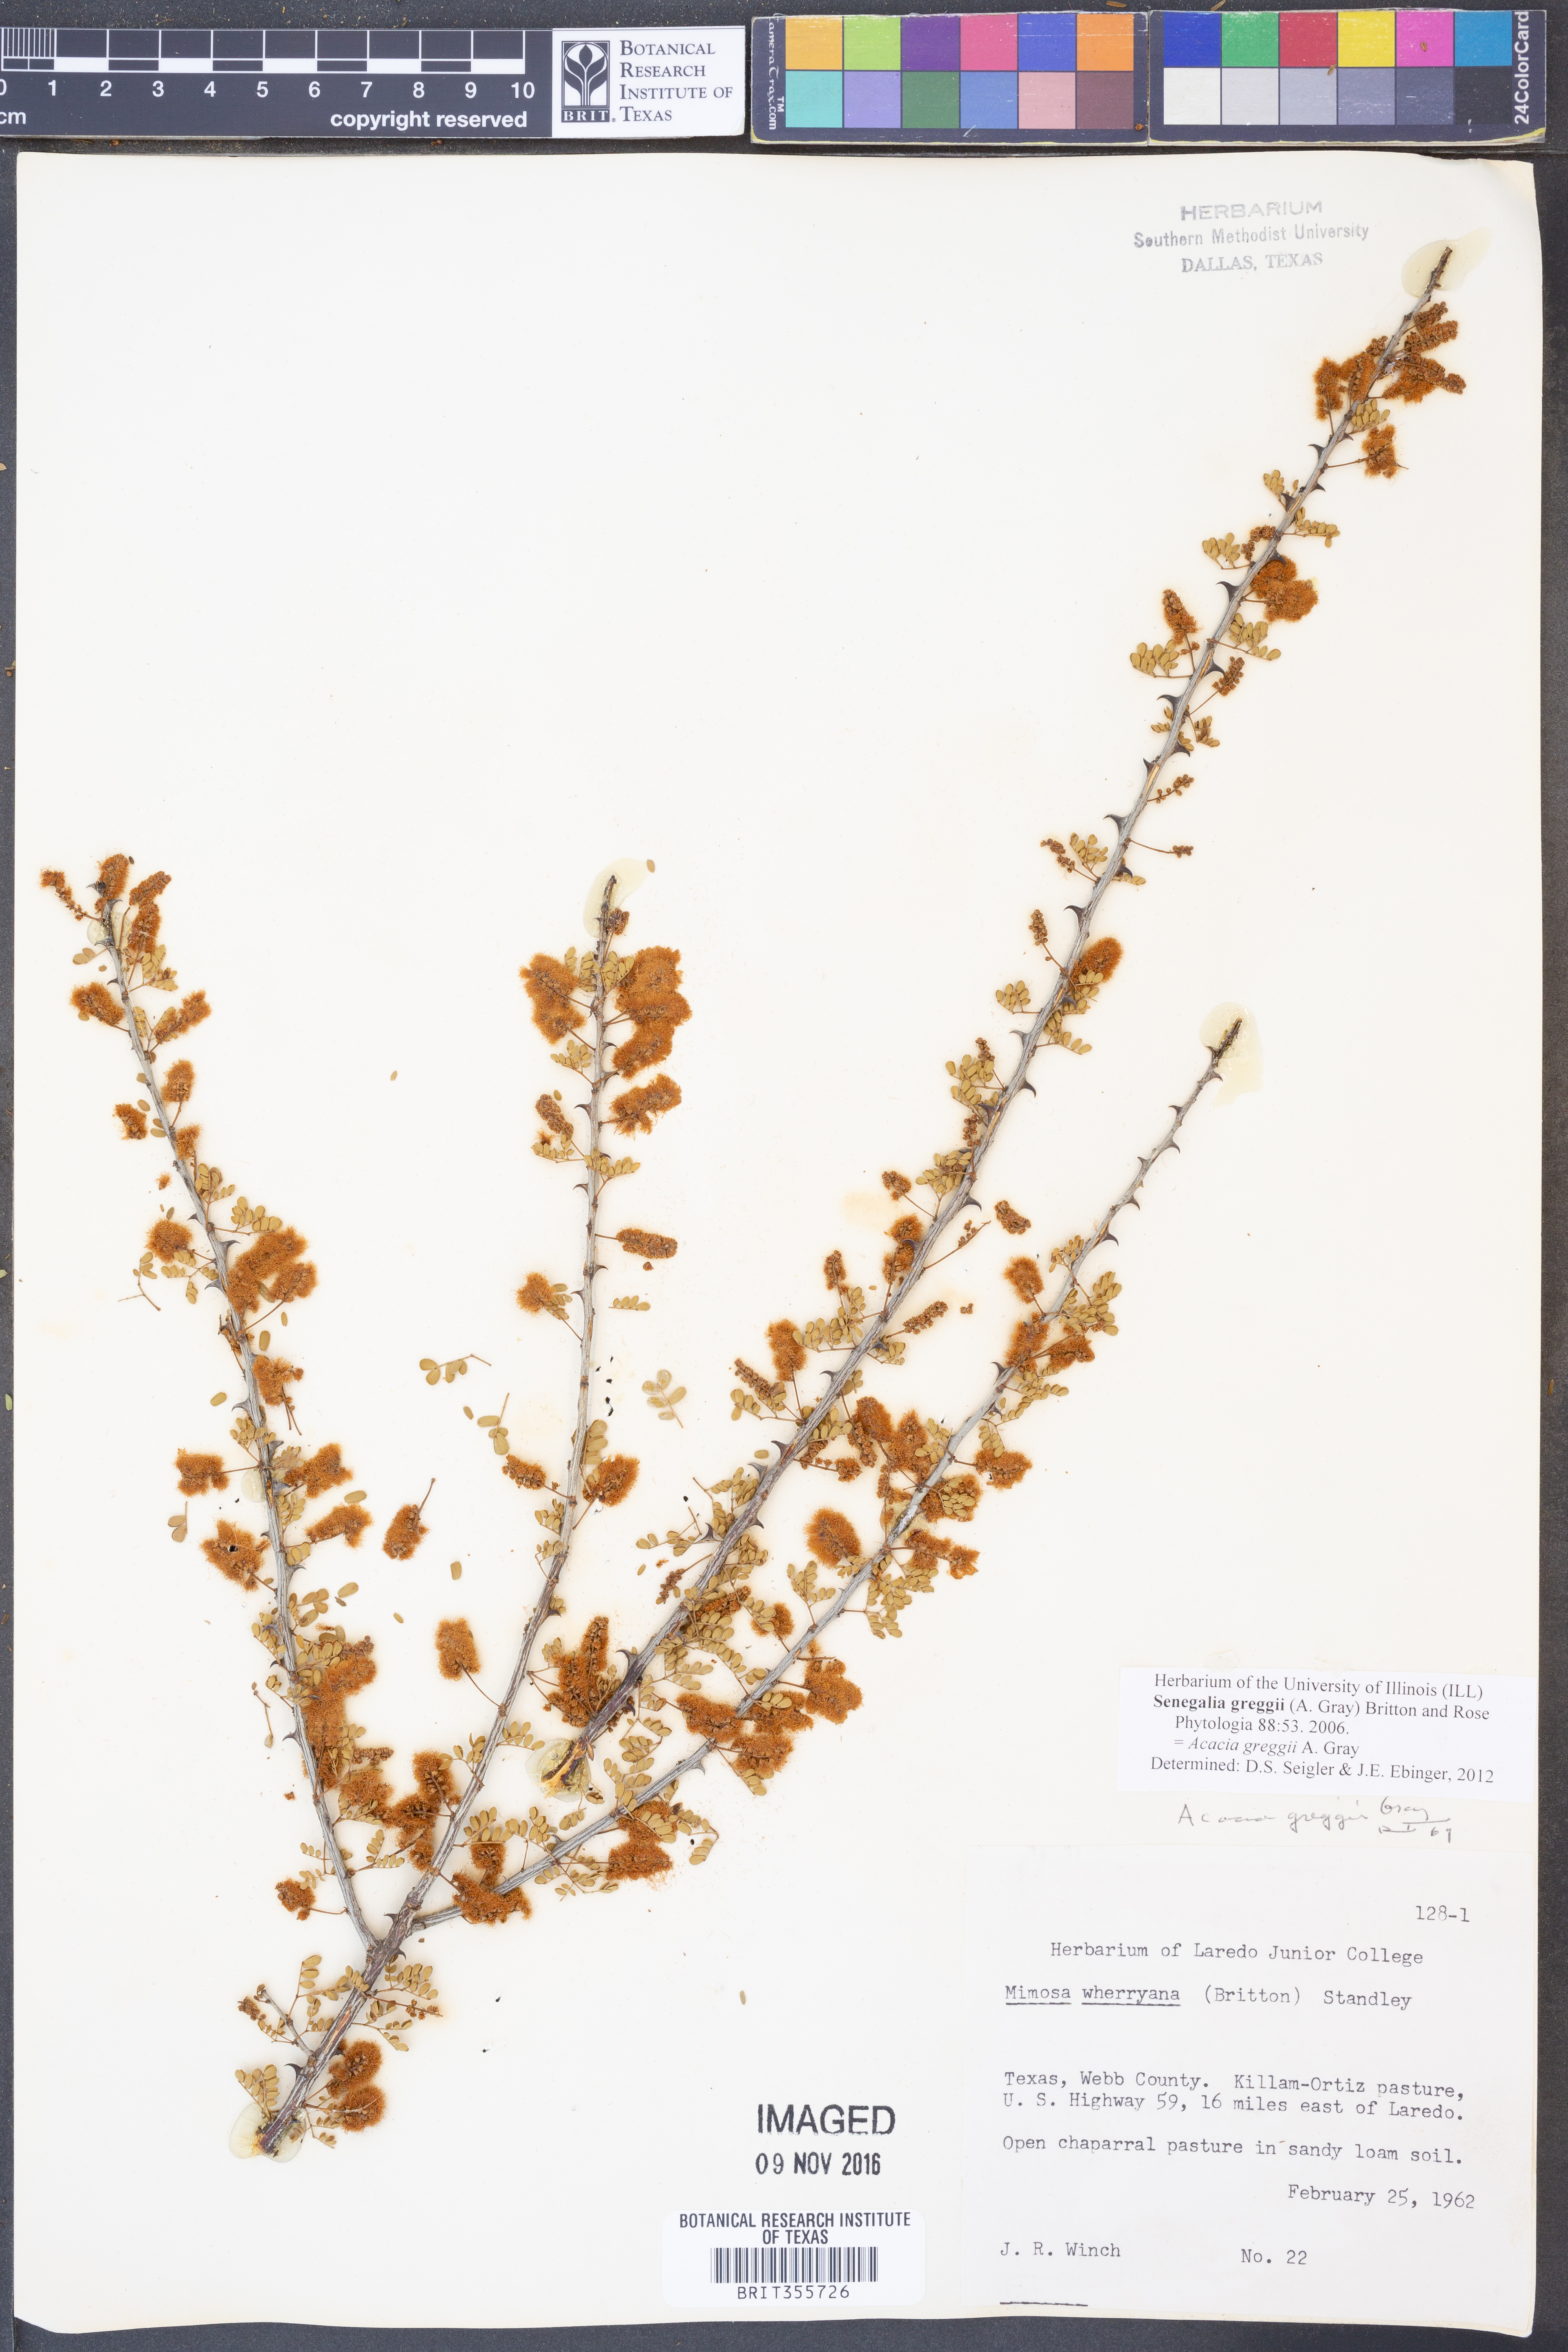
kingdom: Plantae
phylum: Tracheophyta
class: Magnoliopsida
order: Fabales
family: Fabaceae
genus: Senegalia
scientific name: Senegalia greggii
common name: Texas-mimosa
